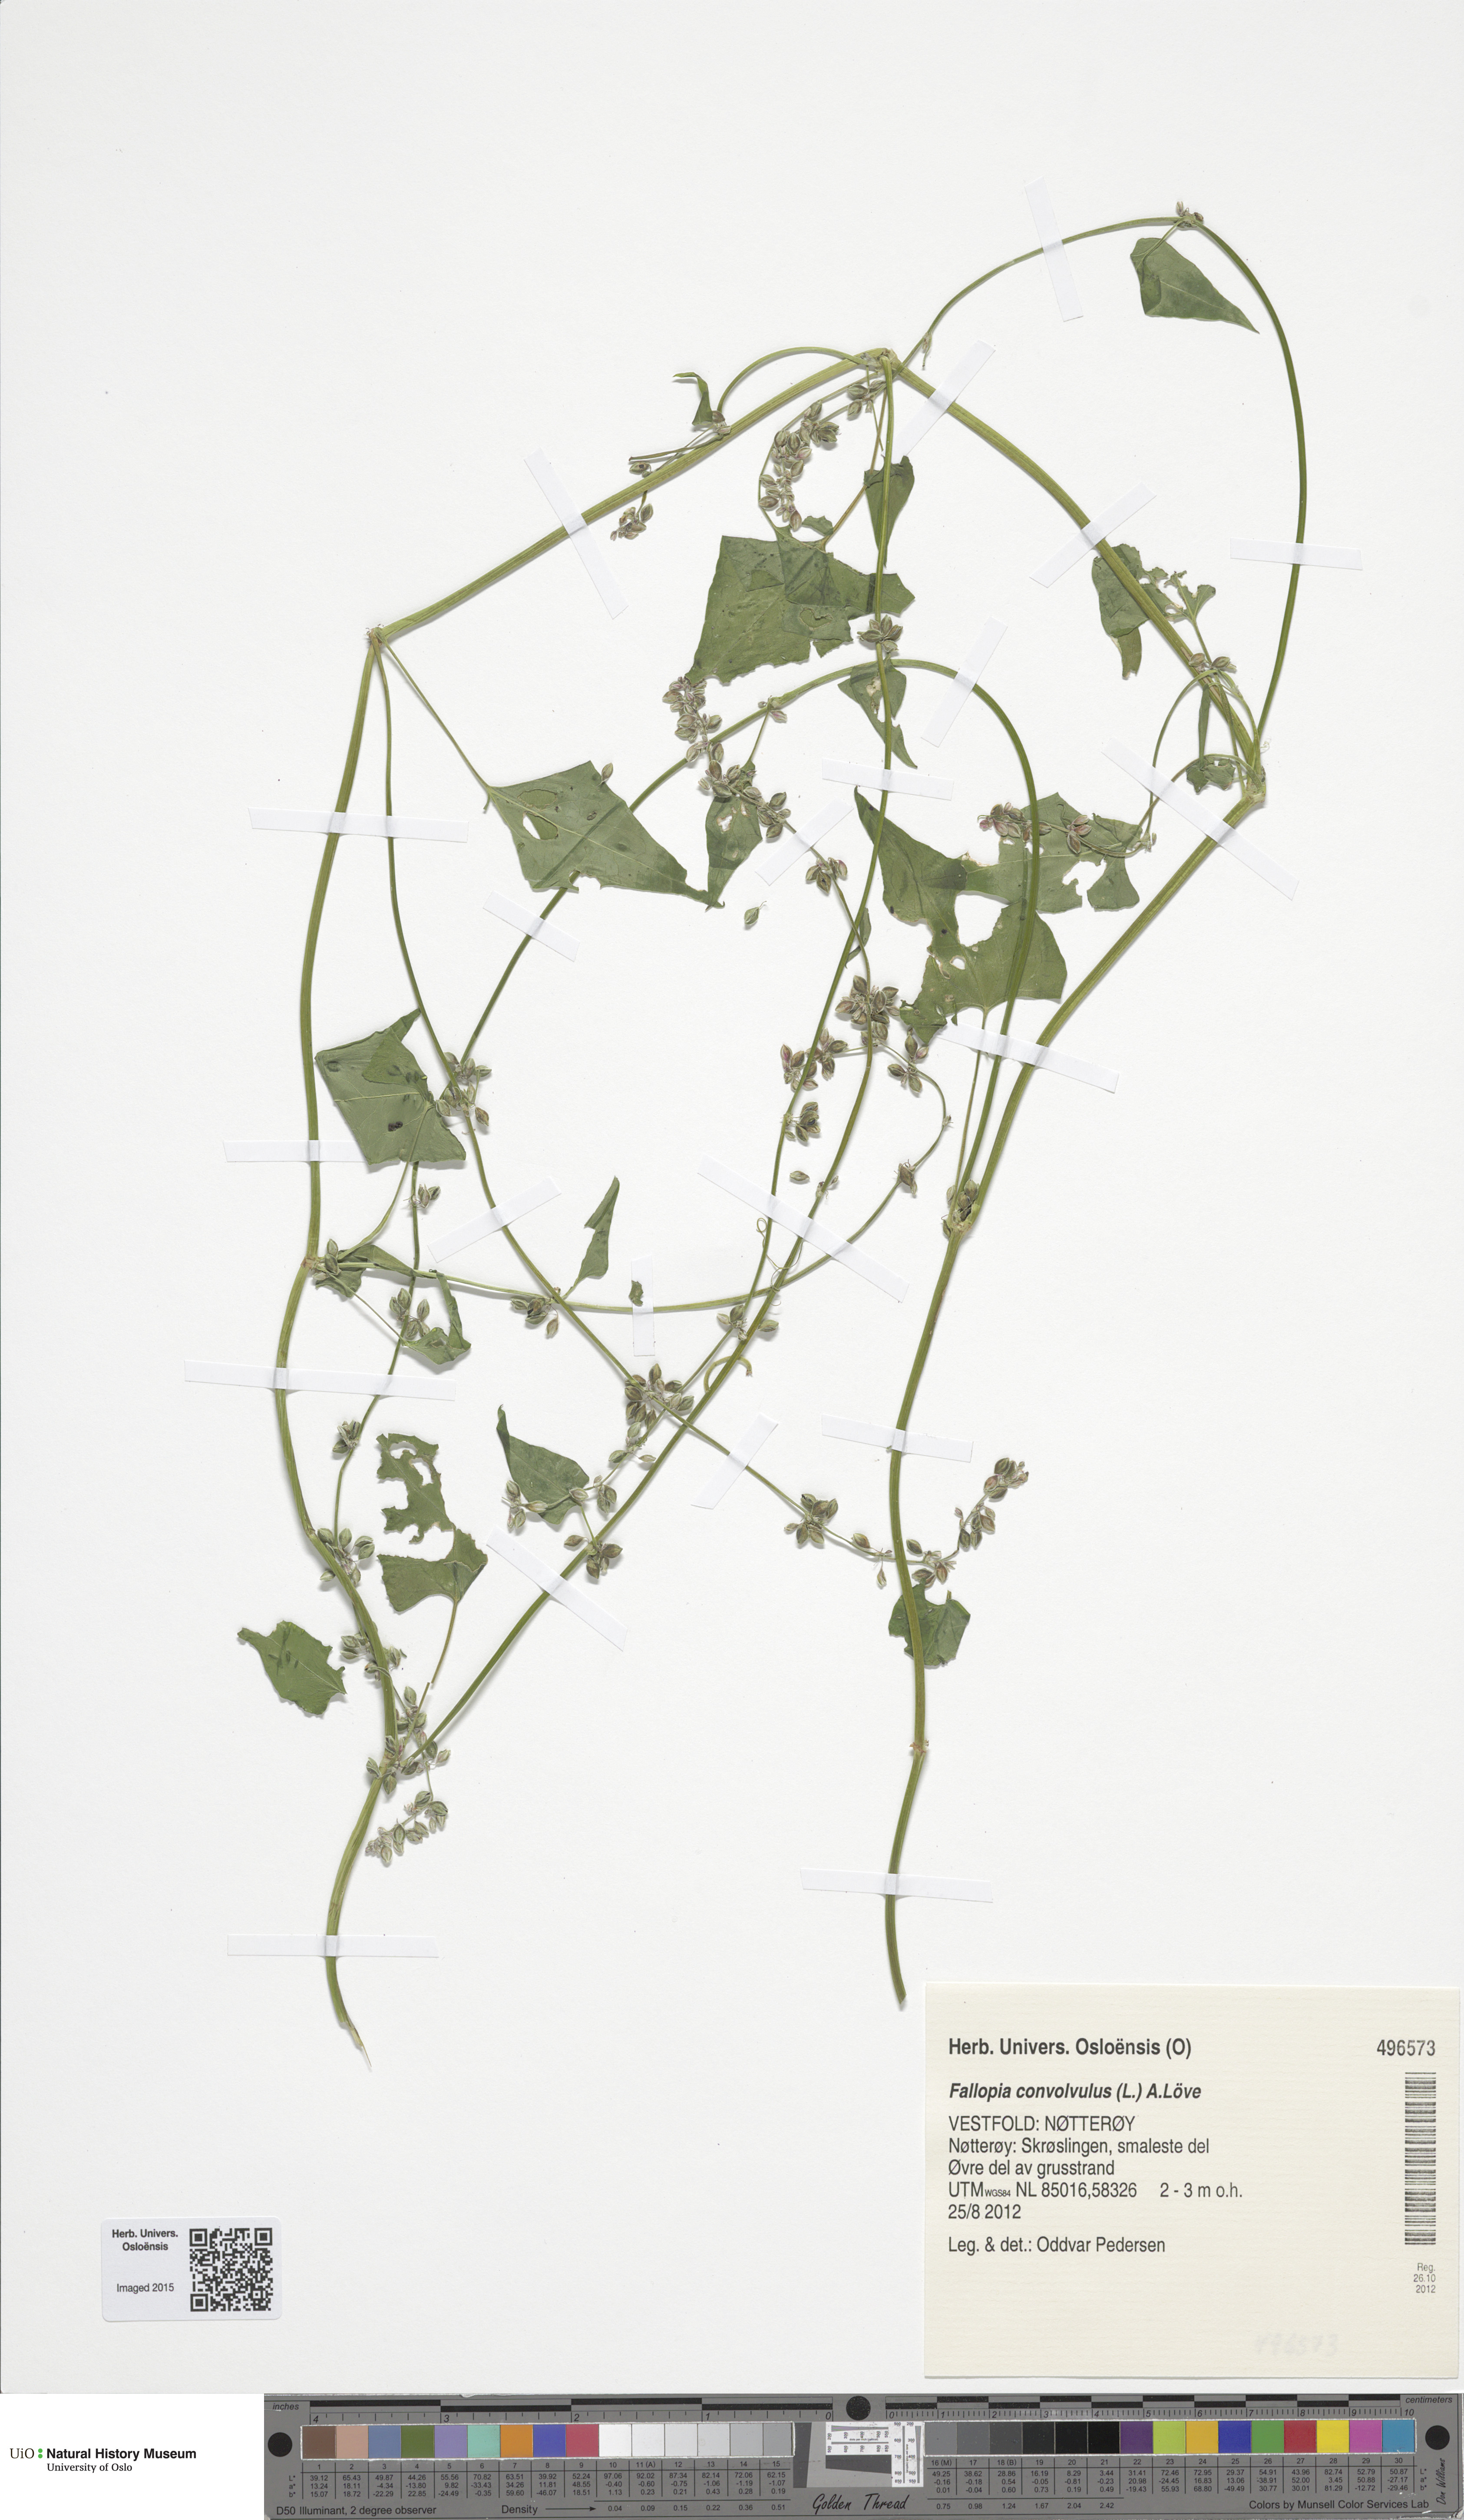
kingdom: Plantae
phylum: Tracheophyta
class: Magnoliopsida
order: Caryophyllales
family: Polygonaceae
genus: Fallopia
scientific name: Fallopia convolvulus
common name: Black bindweed
